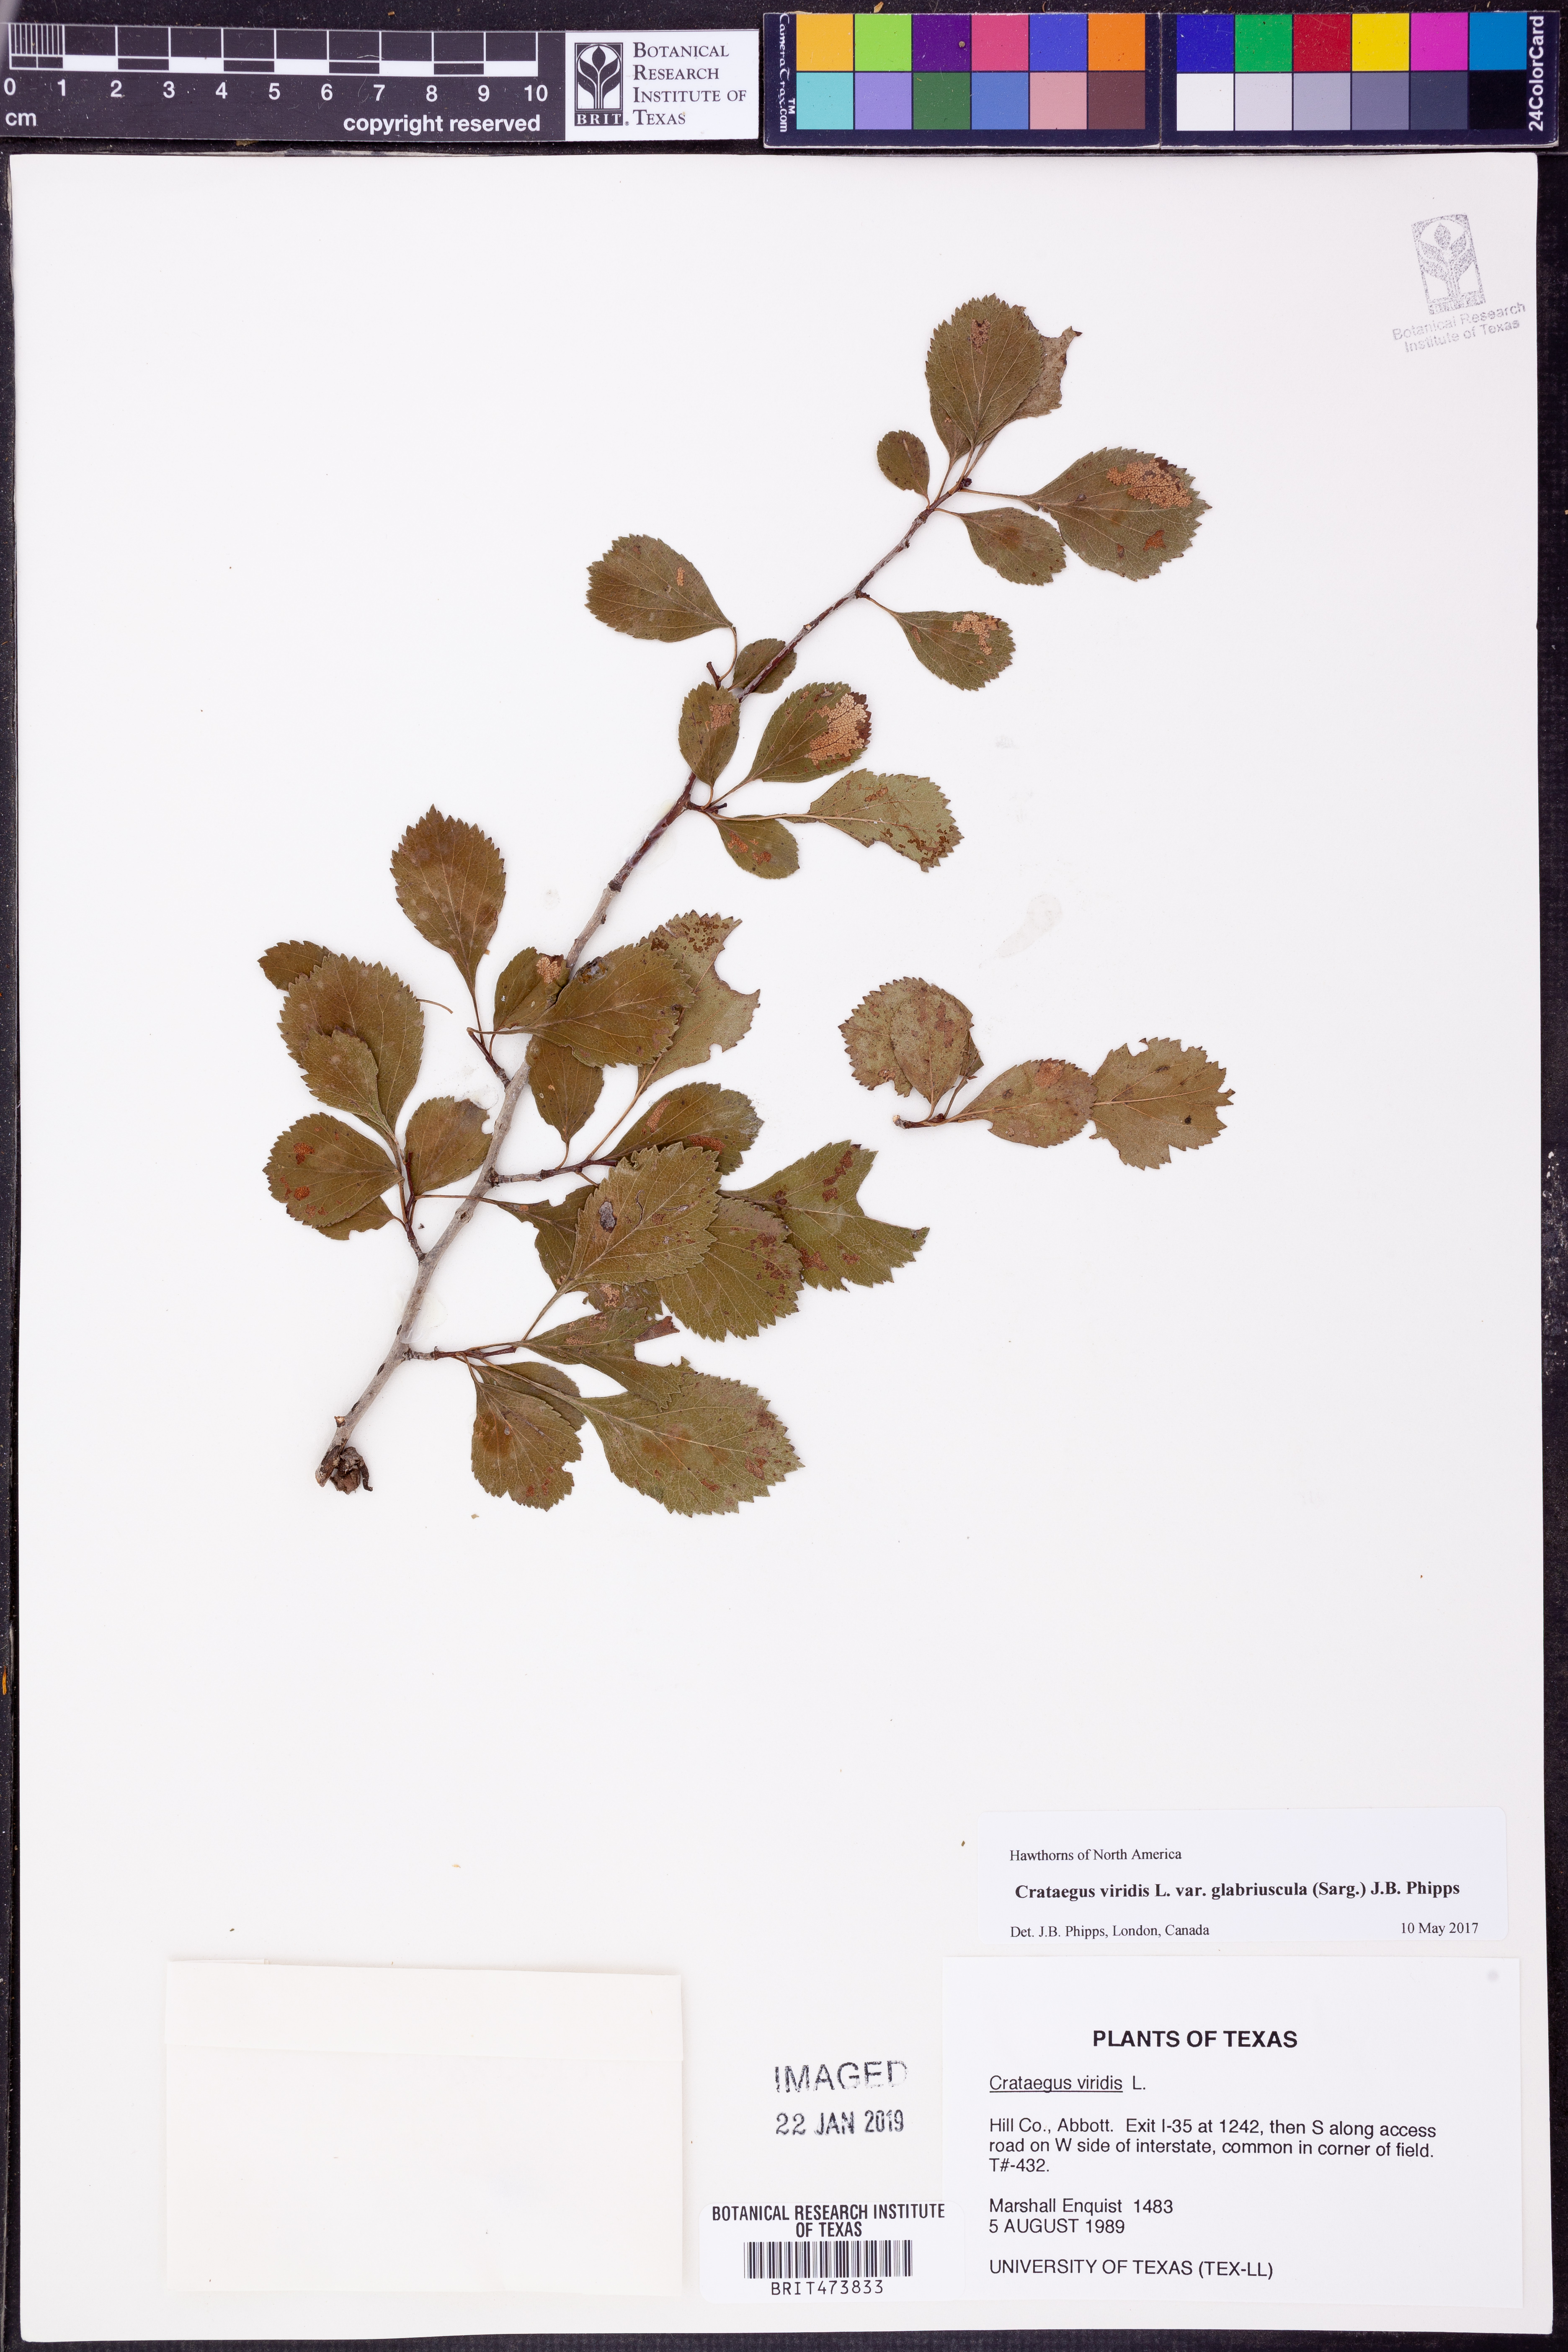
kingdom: Plantae
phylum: Tracheophyta
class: Magnoliopsida
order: Rosales
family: Rosaceae
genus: Crataegus
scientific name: Crataegus viridis
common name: Southernthorn
